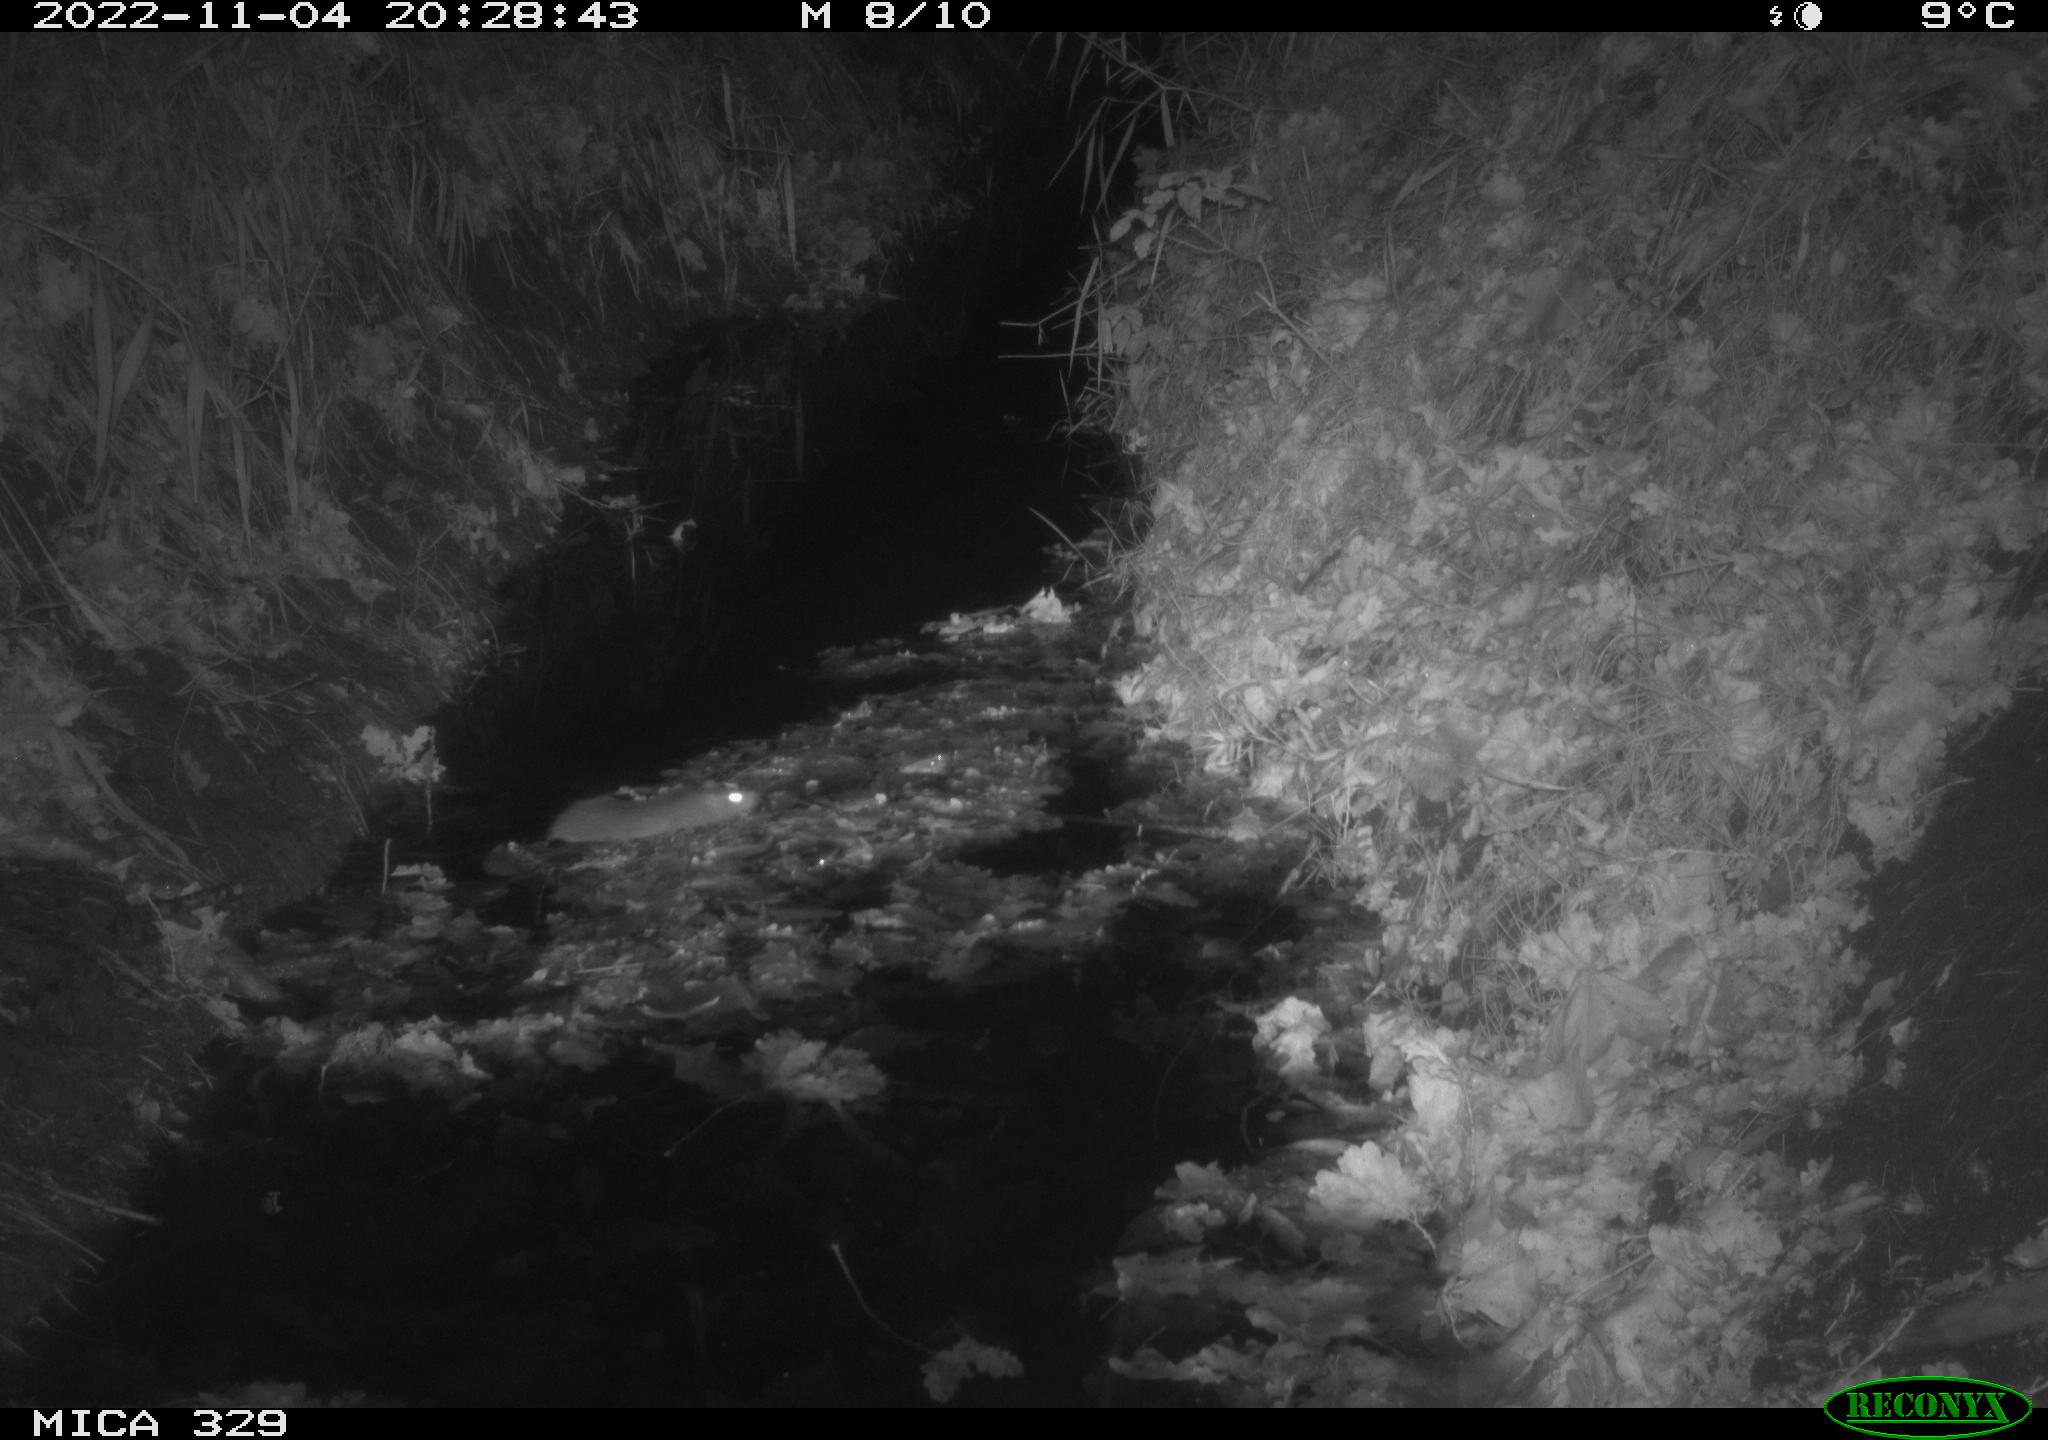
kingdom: Animalia
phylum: Chordata
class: Mammalia
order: Rodentia
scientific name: Rodentia
